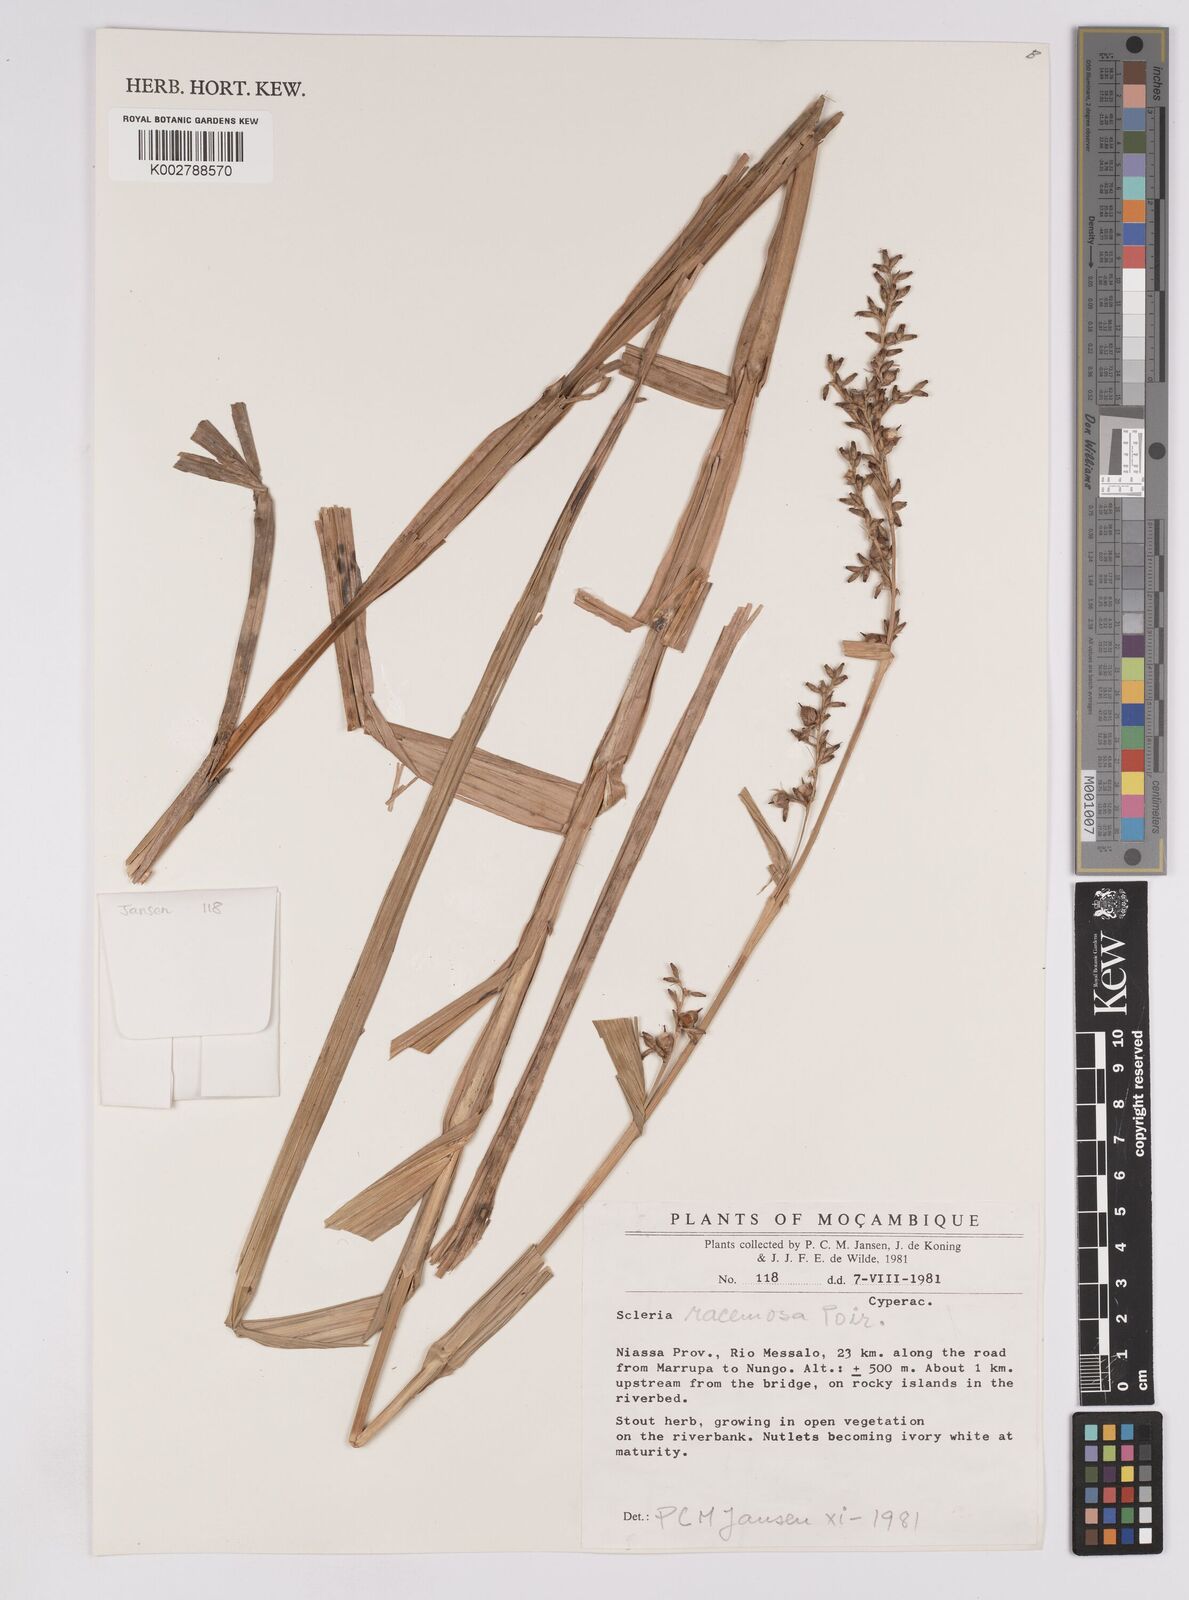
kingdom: Plantae
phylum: Tracheophyta
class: Liliopsida
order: Poales
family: Cyperaceae
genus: Scleria
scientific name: Scleria racemosa
